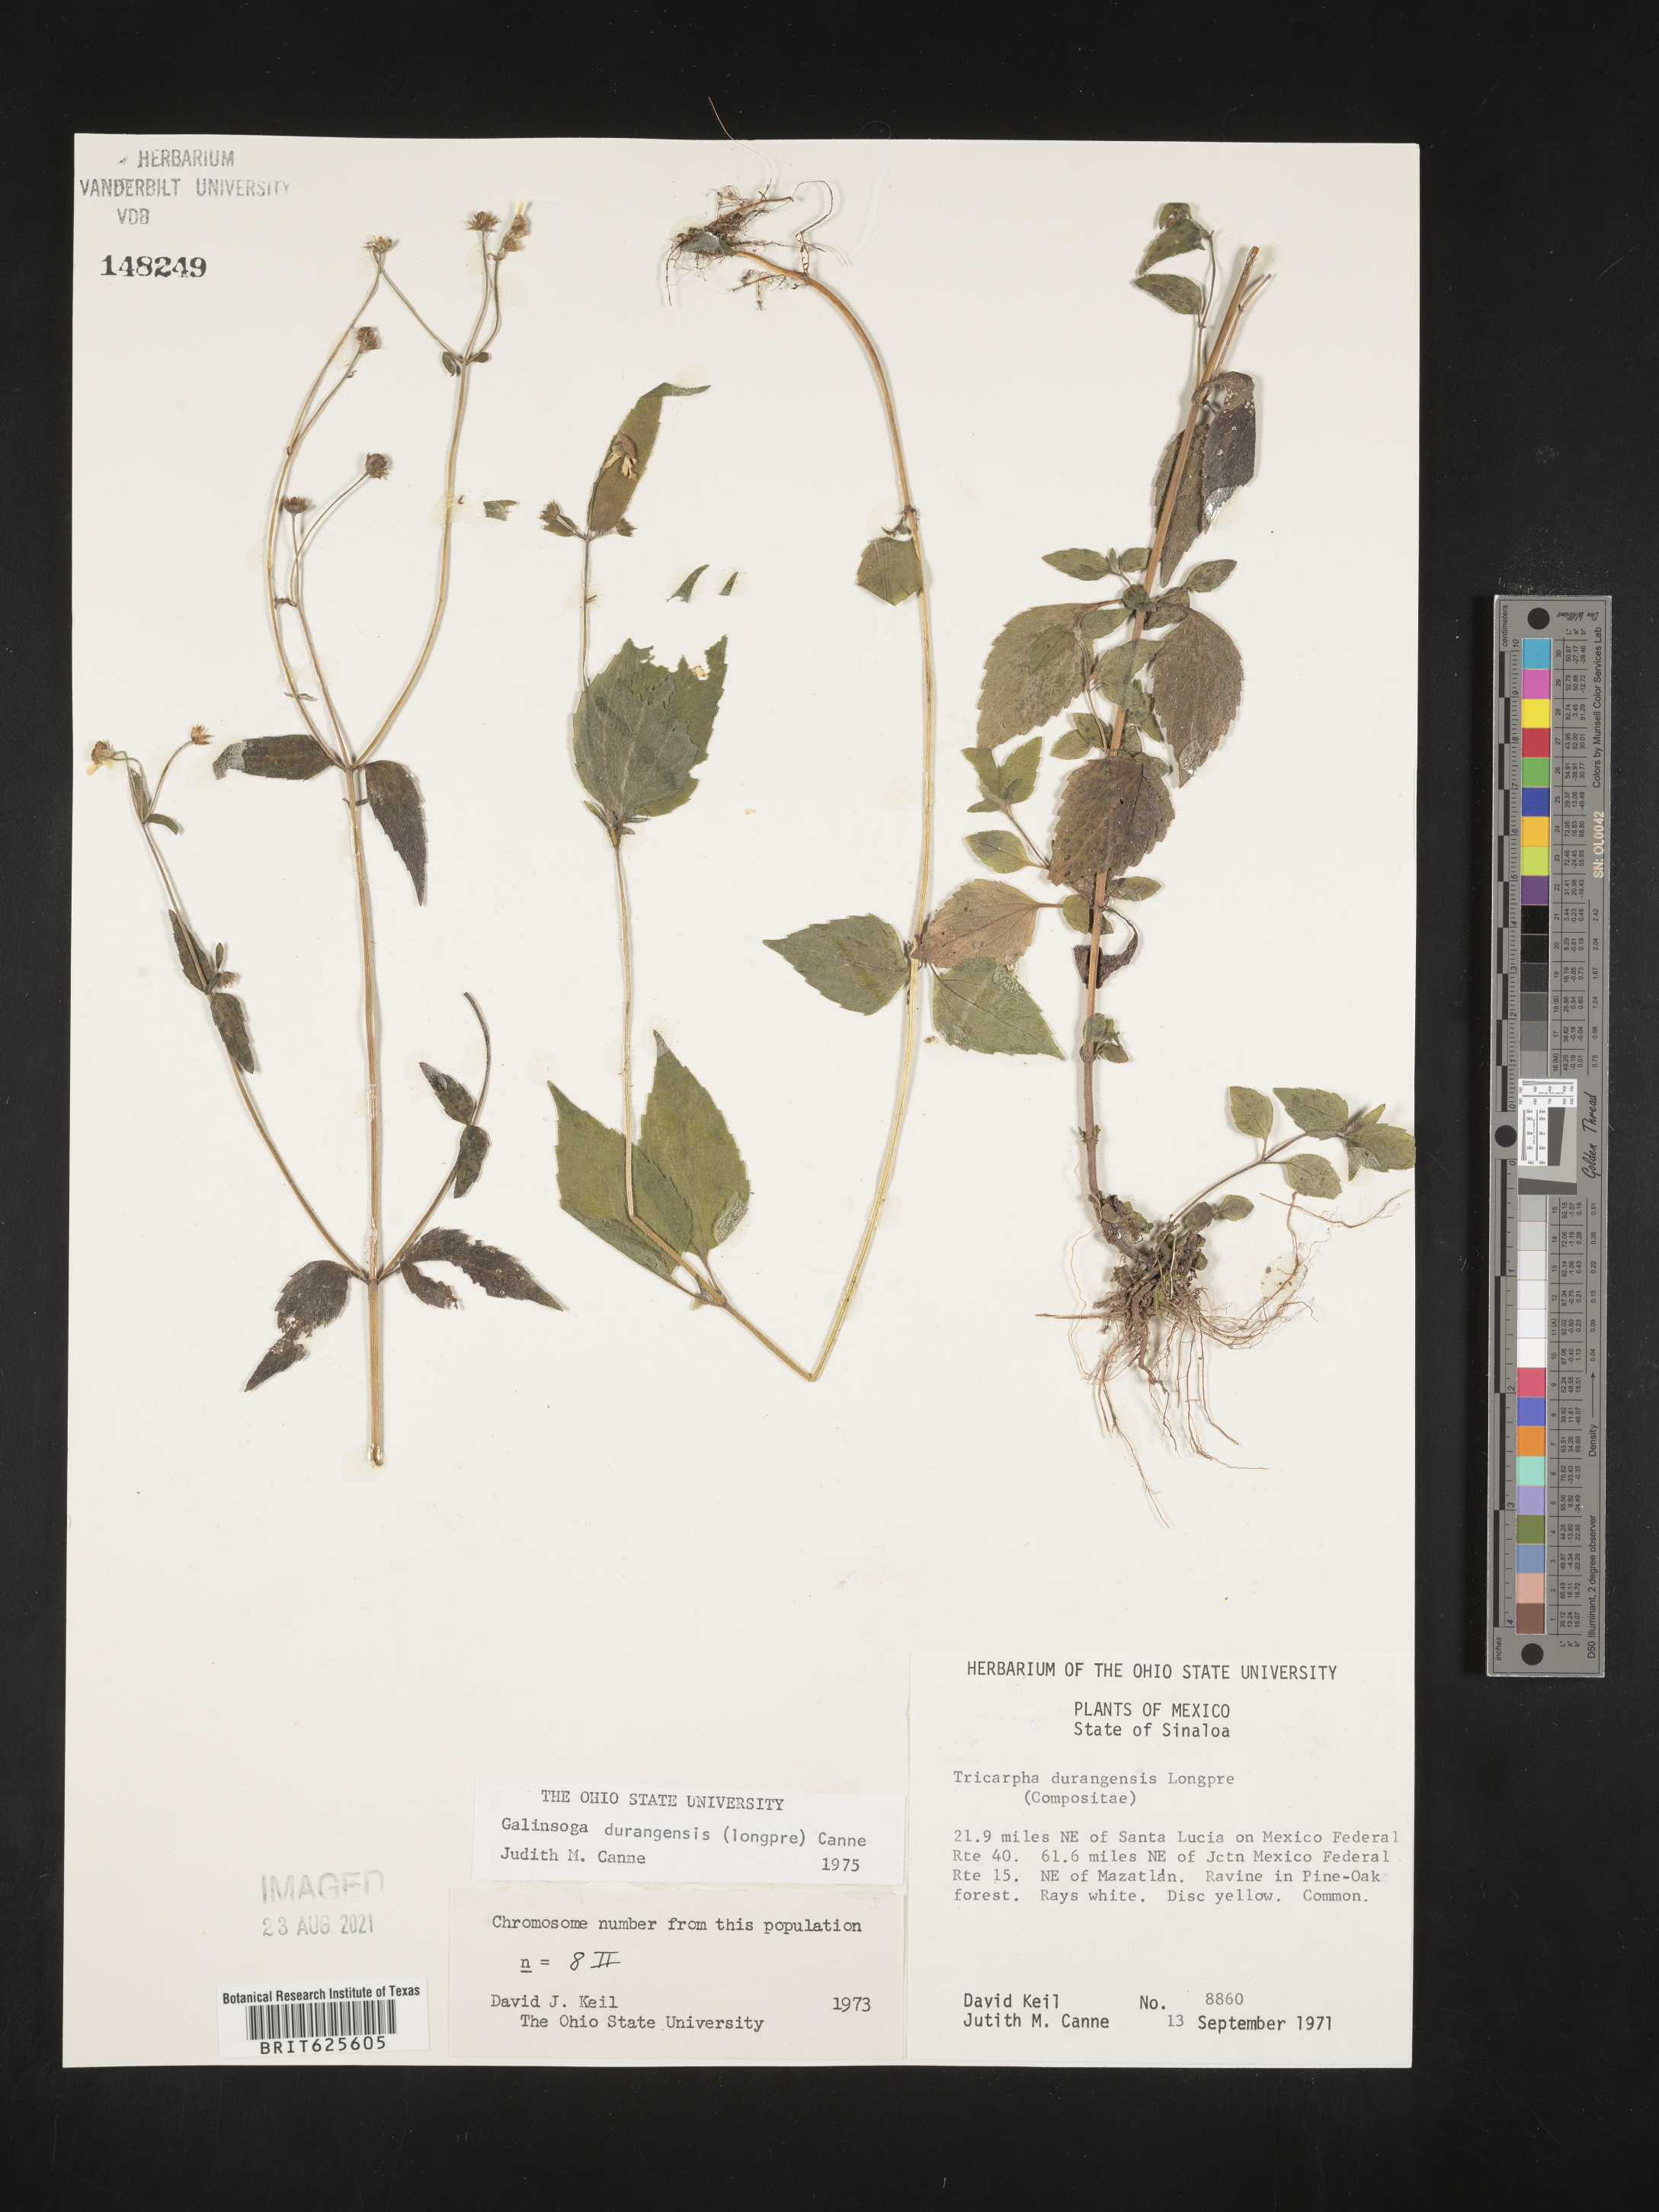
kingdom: Plantae
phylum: Tracheophyta
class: Magnoliopsida
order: Asterales
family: Asteraceae
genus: Galinsoga
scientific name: Galinsoga
